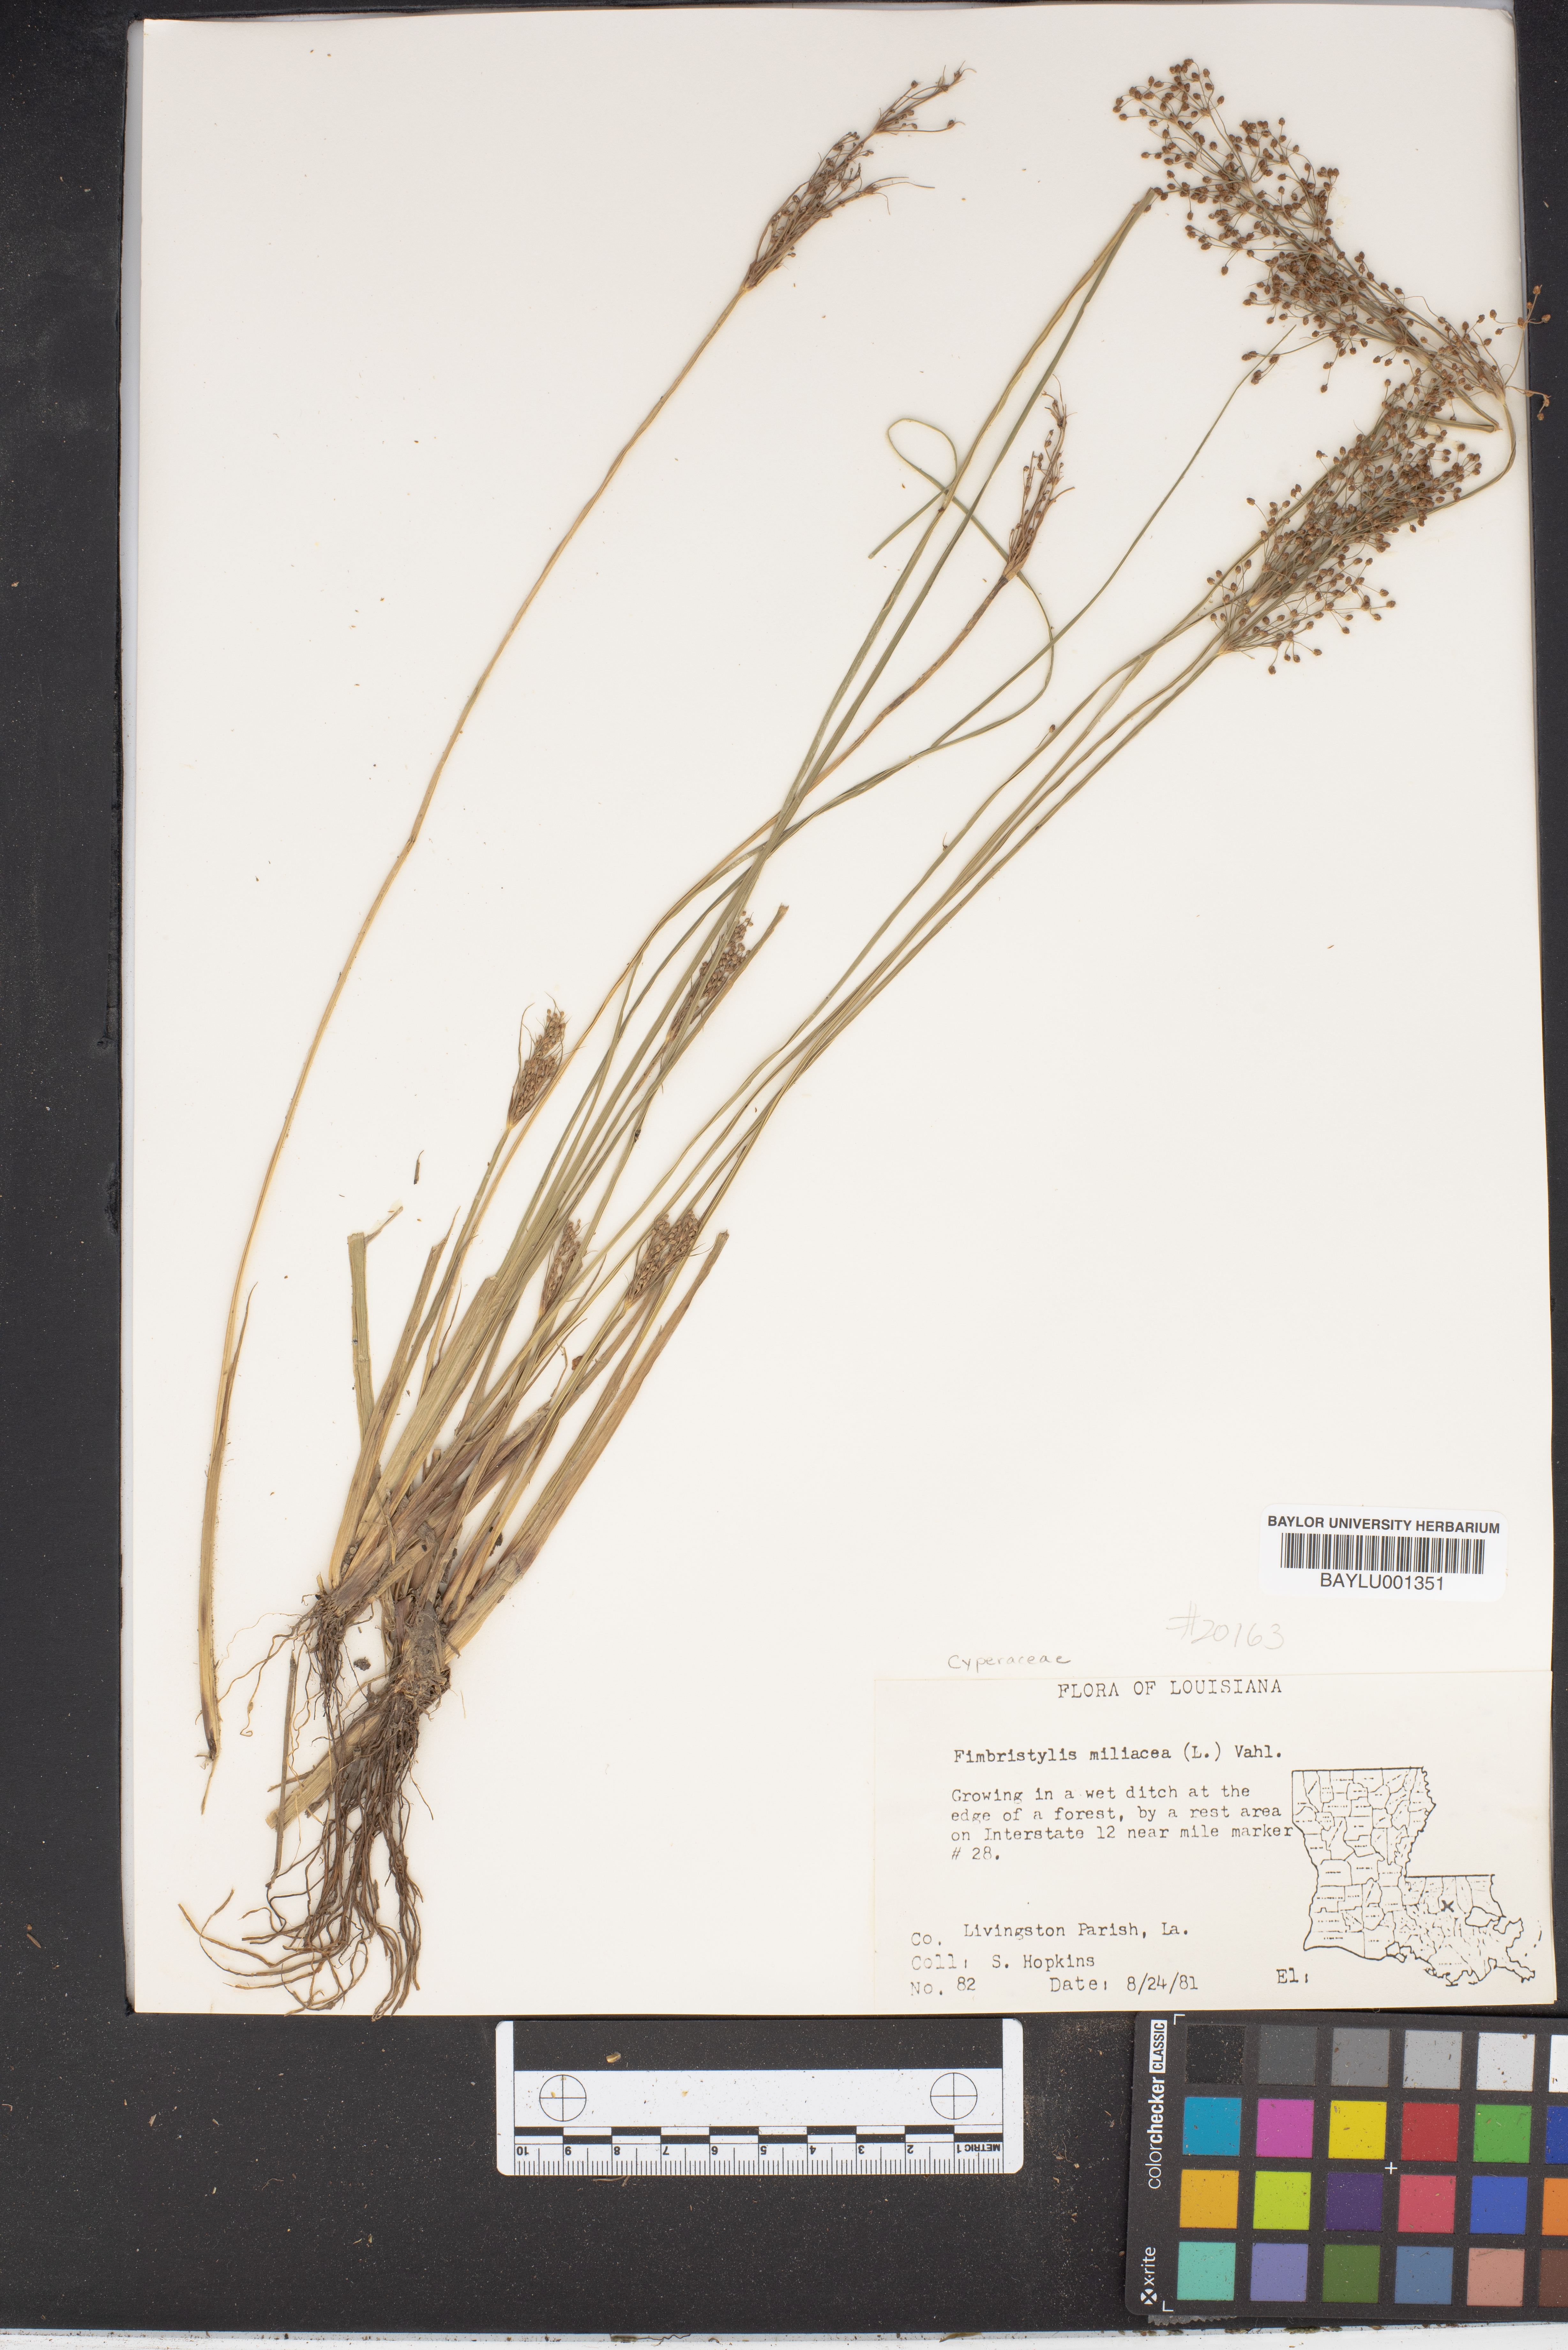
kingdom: Plantae
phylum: Tracheophyta
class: Liliopsida
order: Poales
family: Cyperaceae
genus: Fimbristylis
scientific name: Fimbristylis quinquangularis
